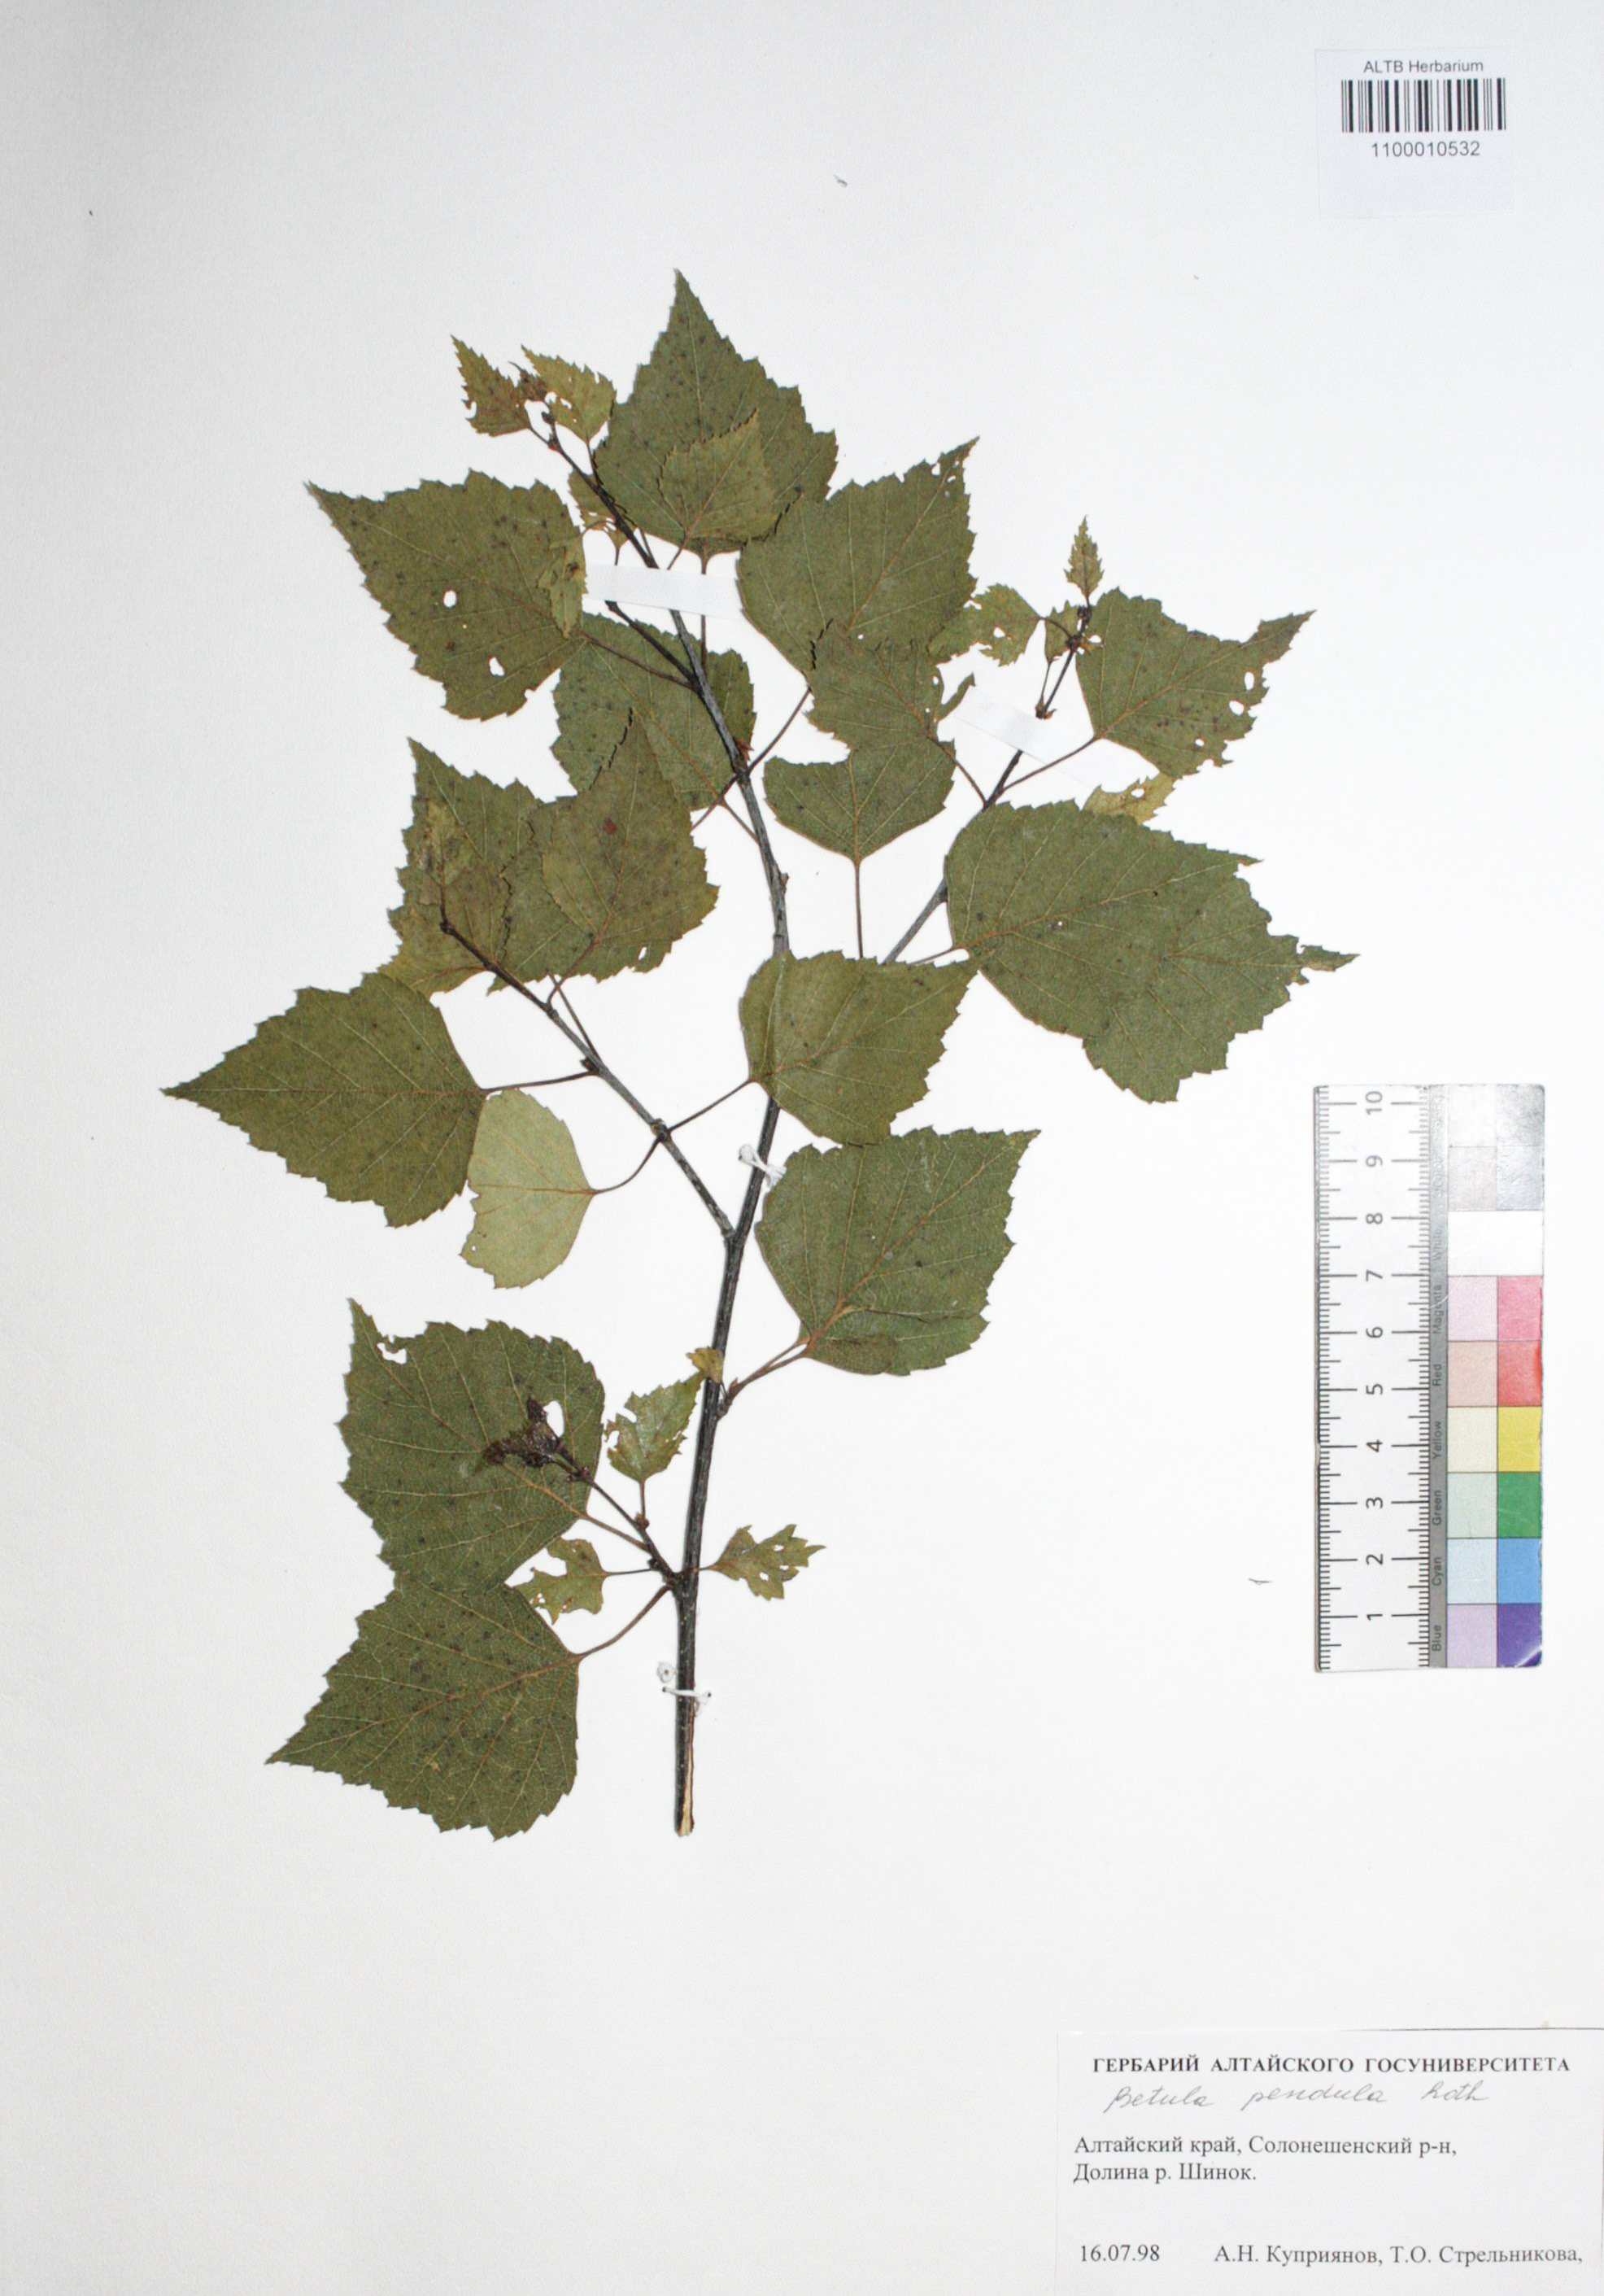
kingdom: Plantae
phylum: Tracheophyta
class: Magnoliopsida
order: Fagales
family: Betulaceae
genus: Betula
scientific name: Betula pendula
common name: Silver birch
